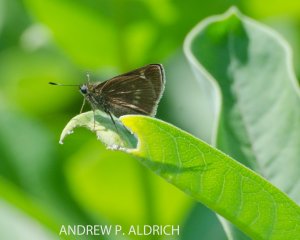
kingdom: Animalia
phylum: Arthropoda
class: Insecta
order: Lepidoptera
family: Hesperiidae
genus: Euphyes
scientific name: Euphyes
